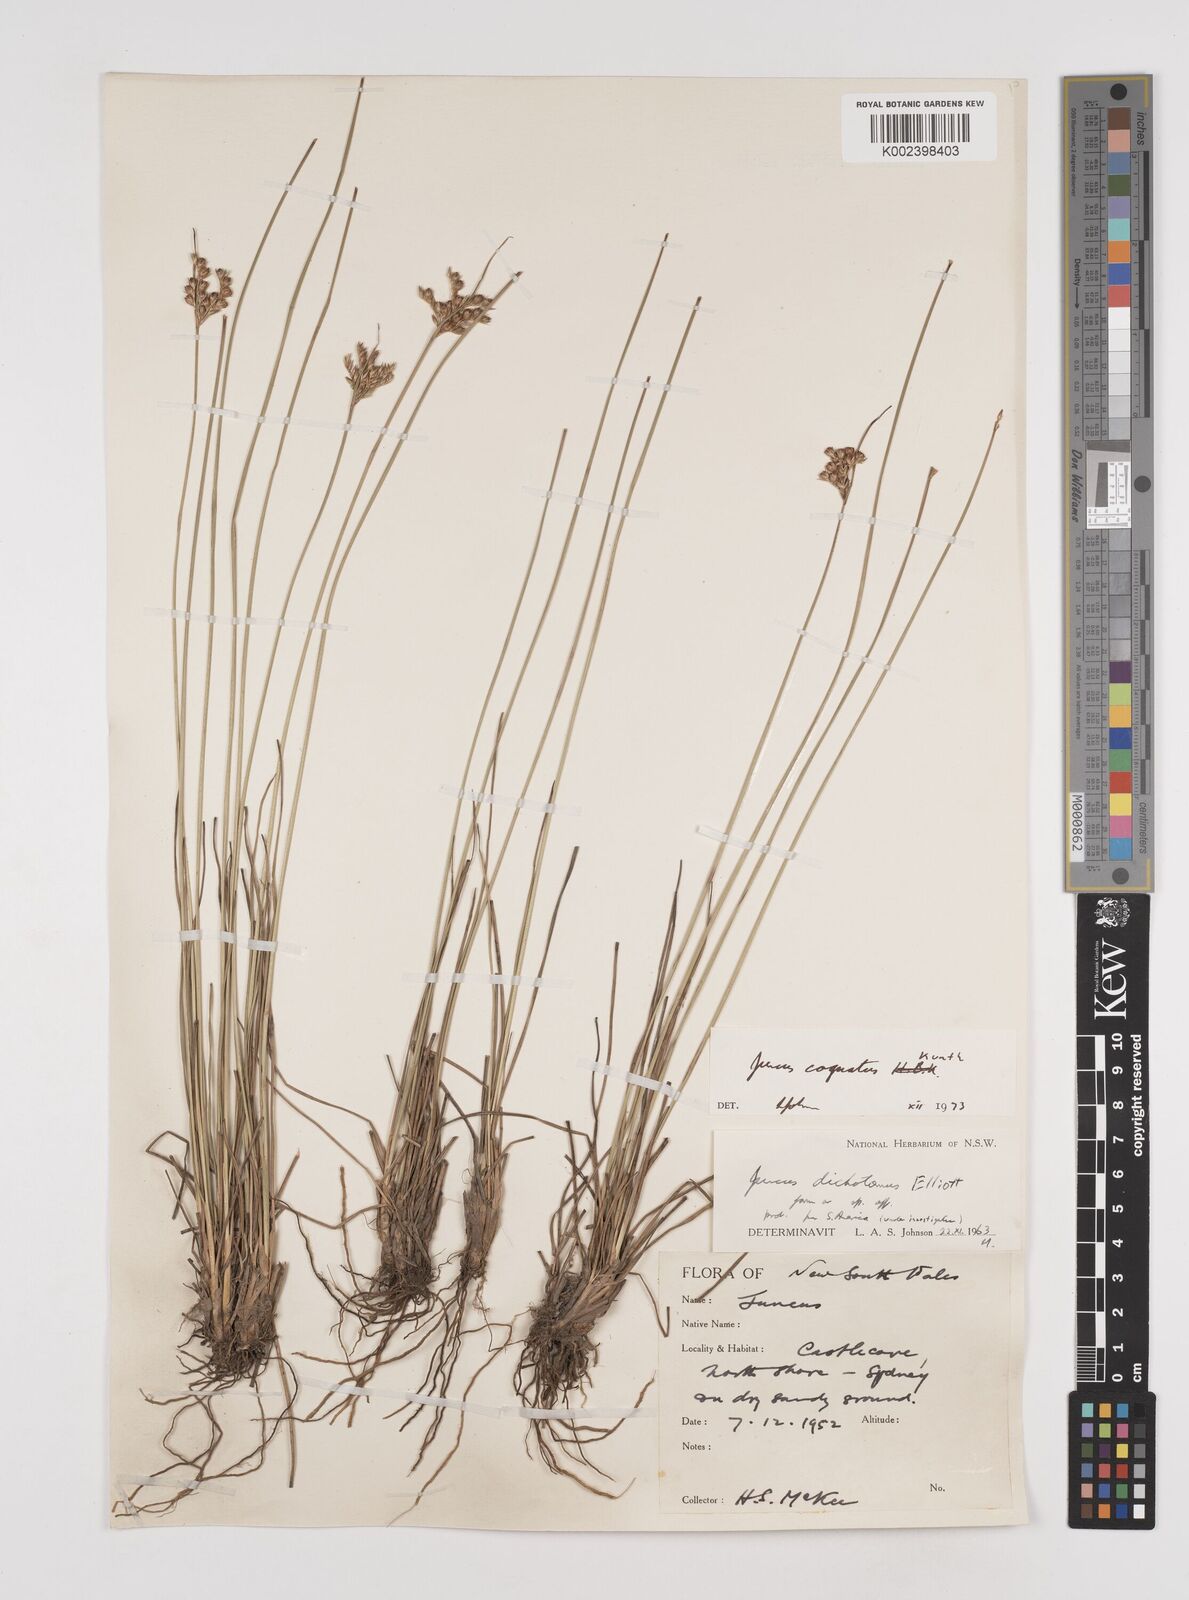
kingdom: Plantae
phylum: Tracheophyta
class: Liliopsida
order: Poales
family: Juncaceae
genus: Juncus
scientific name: Juncus dichotomus
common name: Forked rush
